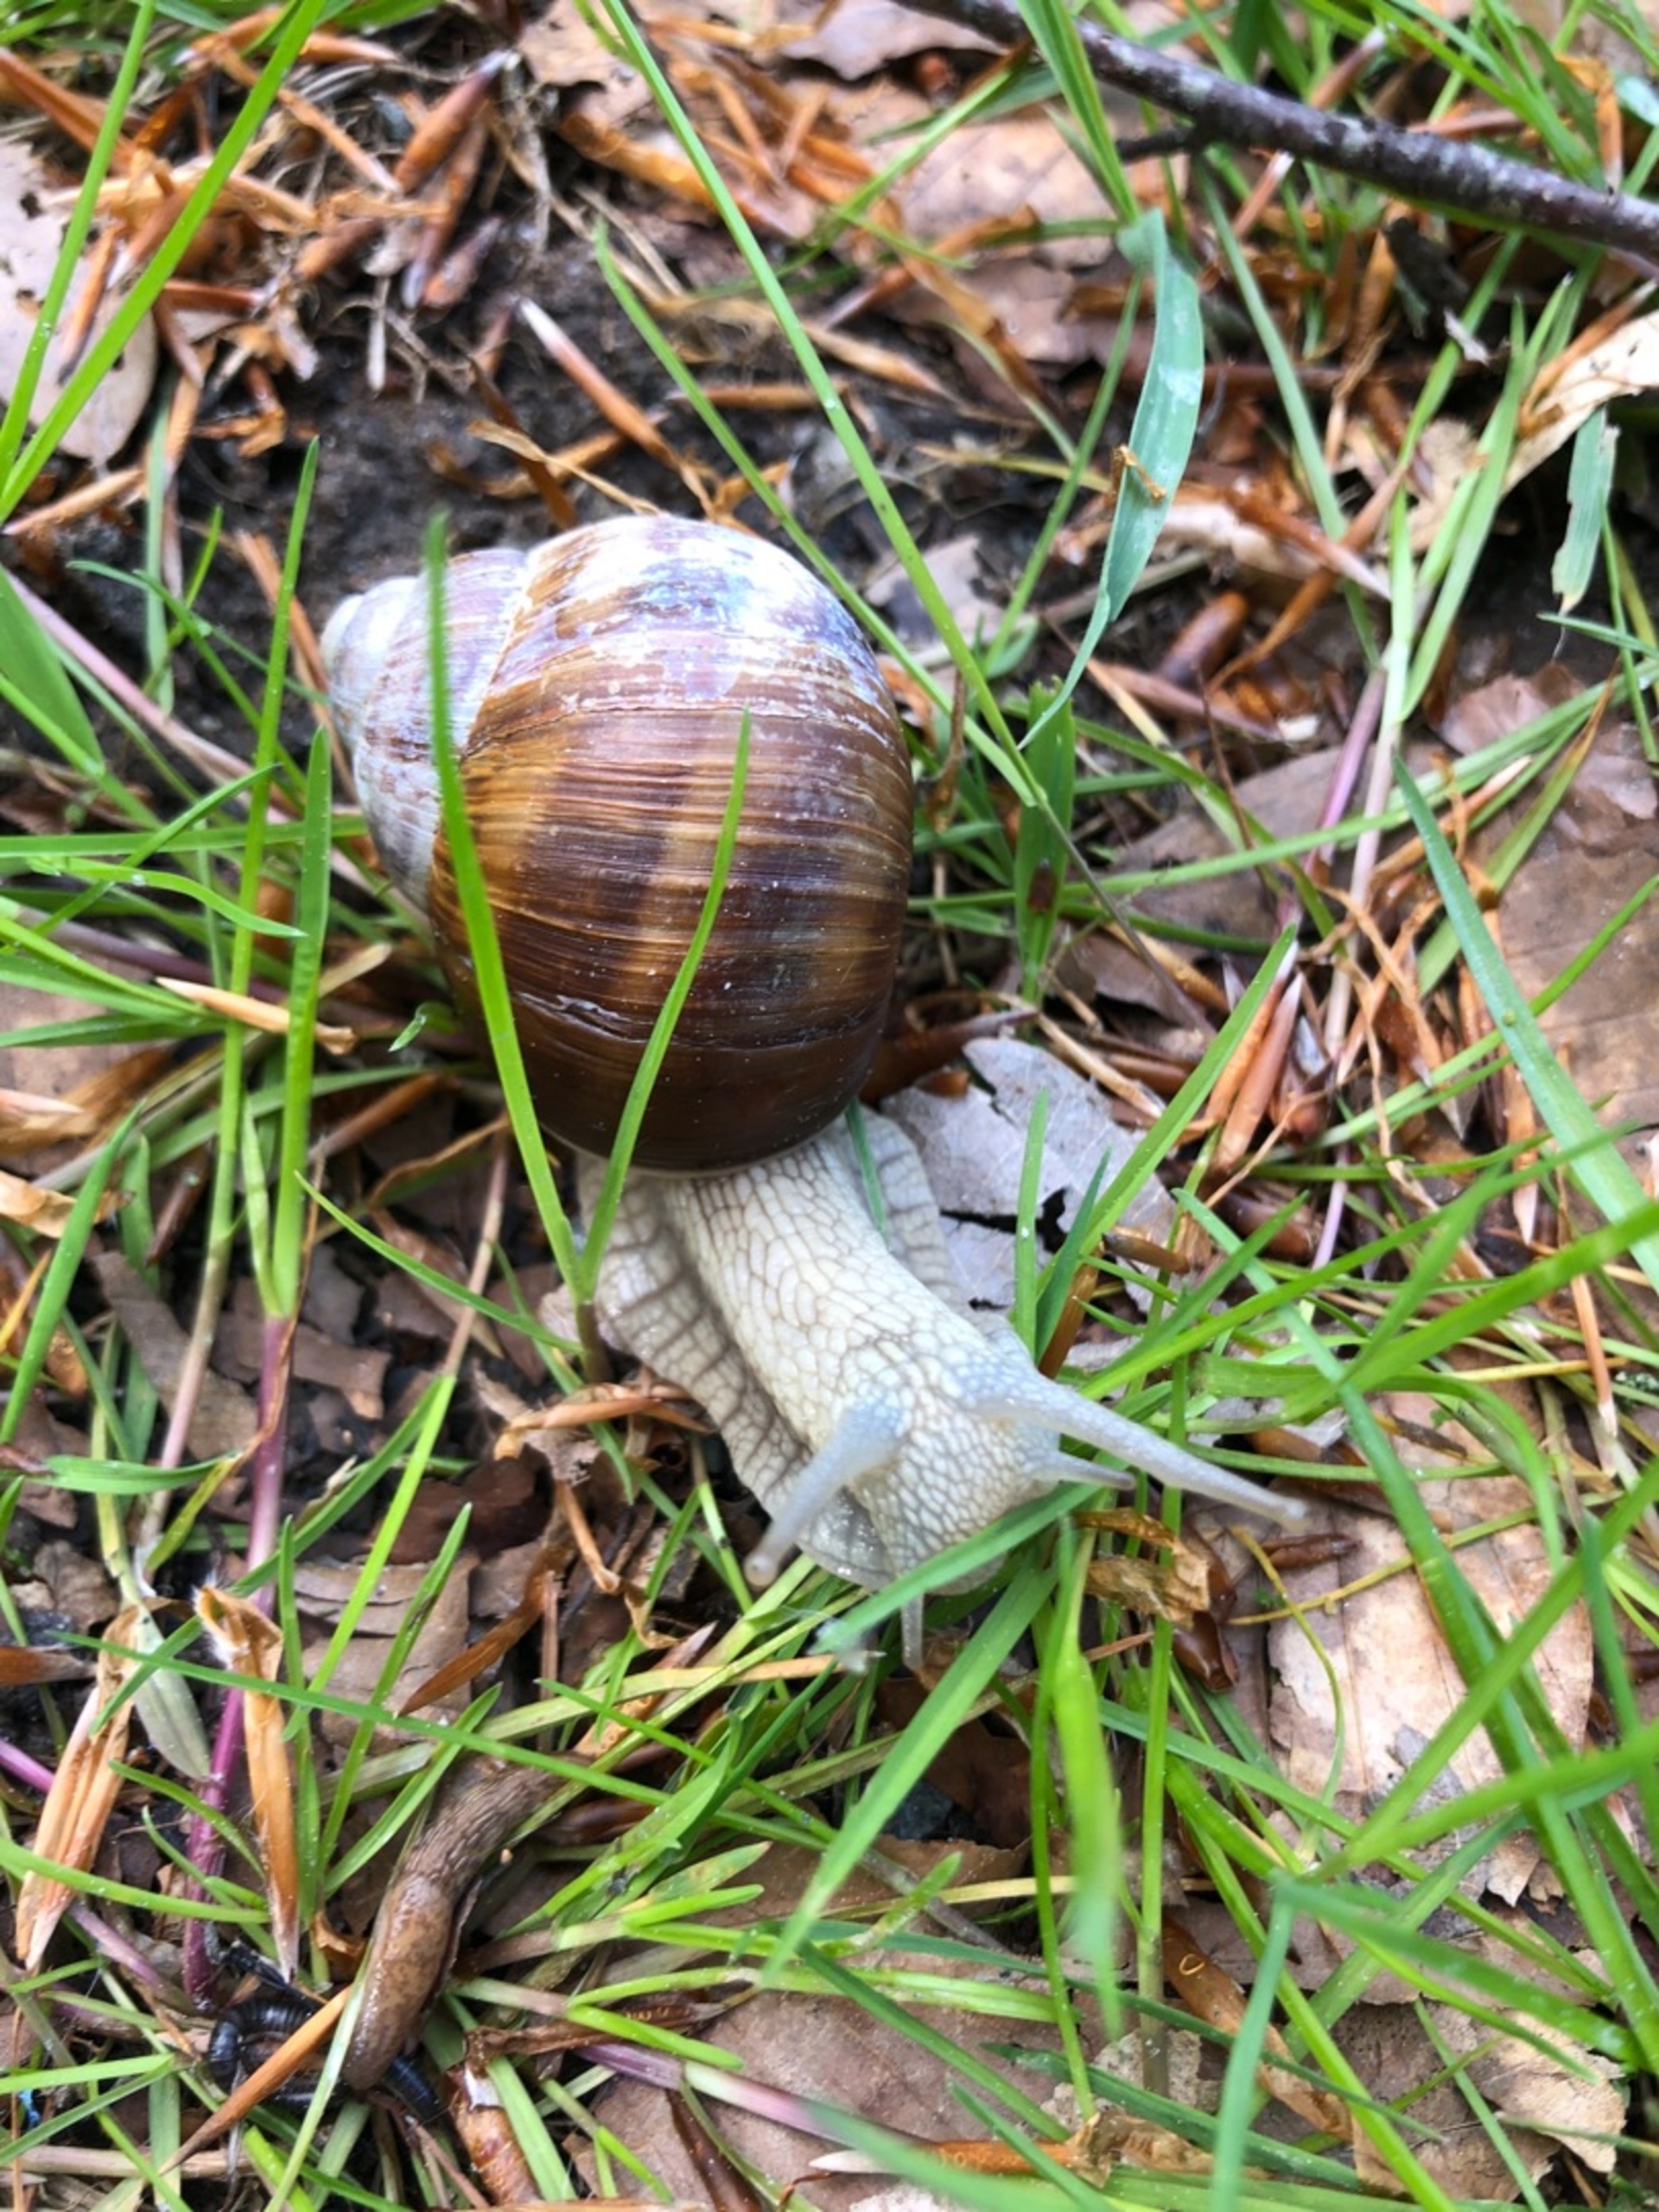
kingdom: Animalia
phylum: Mollusca
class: Gastropoda
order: Stylommatophora
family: Helicidae
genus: Helix
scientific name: Helix pomatia
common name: Vinbjergsnegl
